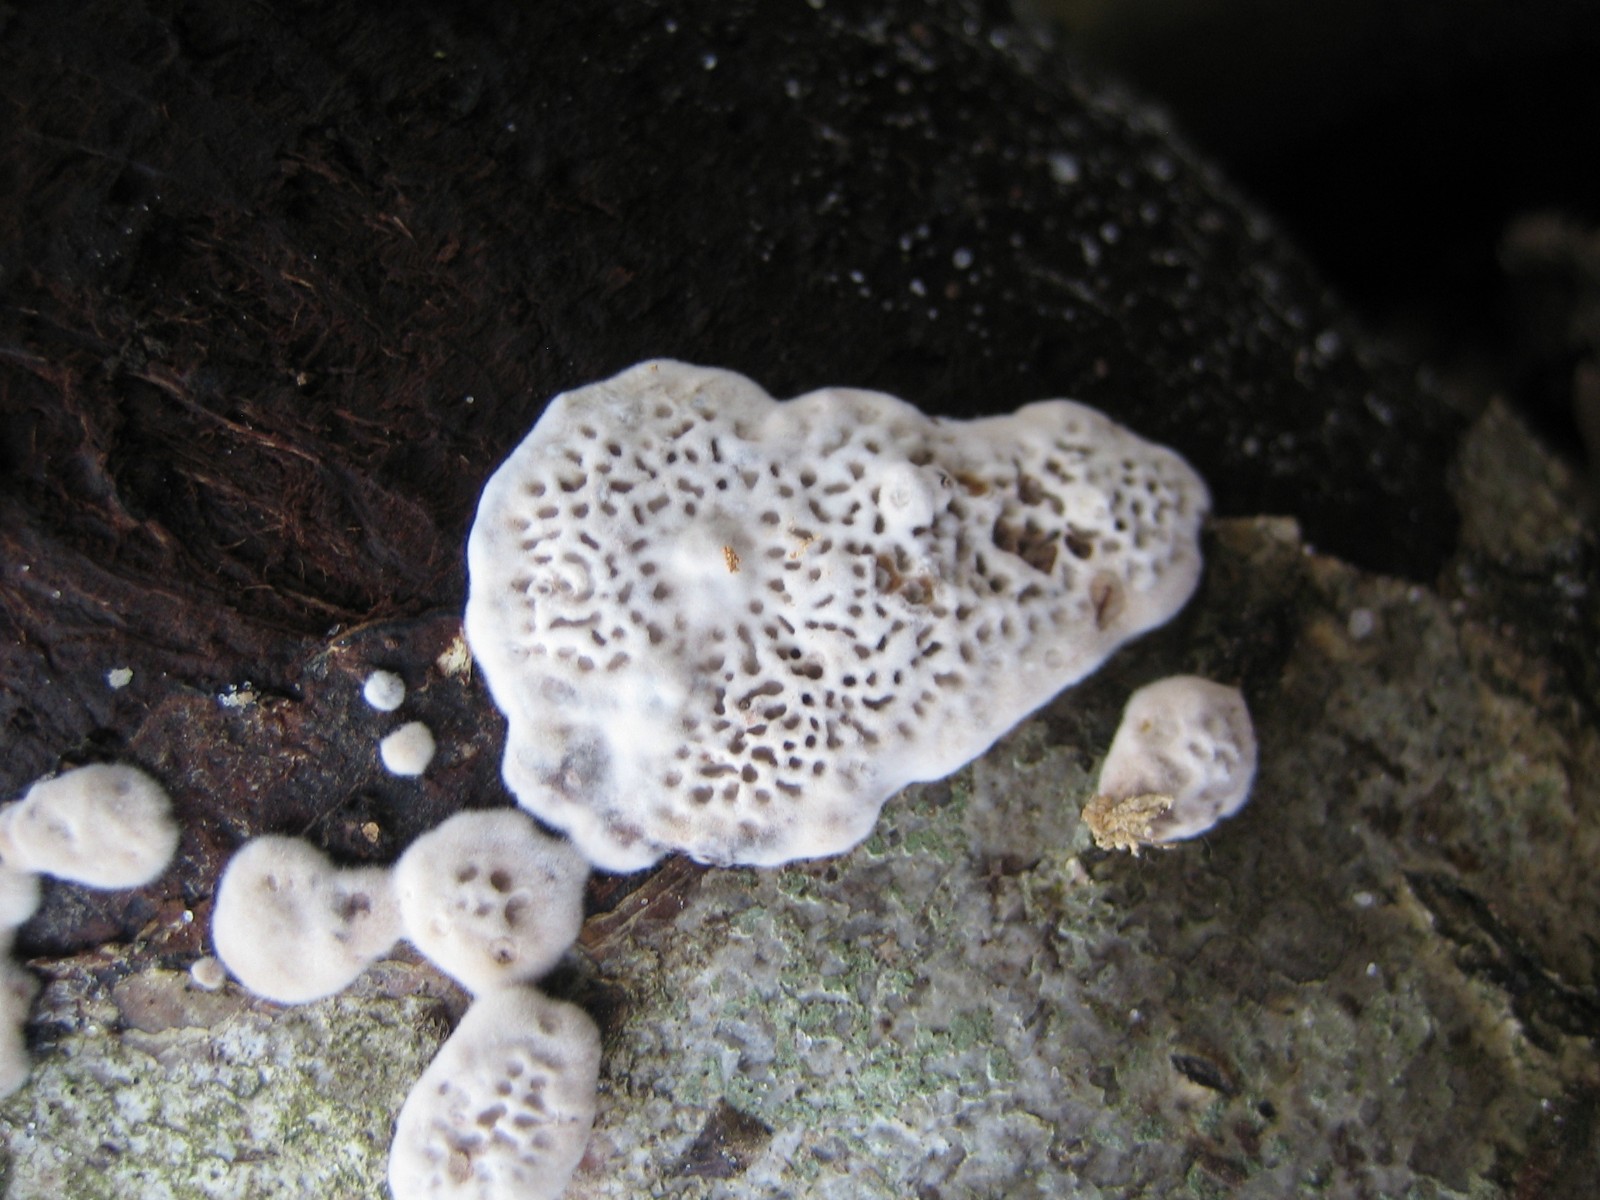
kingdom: Fungi
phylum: Basidiomycota
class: Agaricomycetes
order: Polyporales
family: Polyporaceae
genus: Podofomes
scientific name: Podofomes mollis
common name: blød begporesvamp
